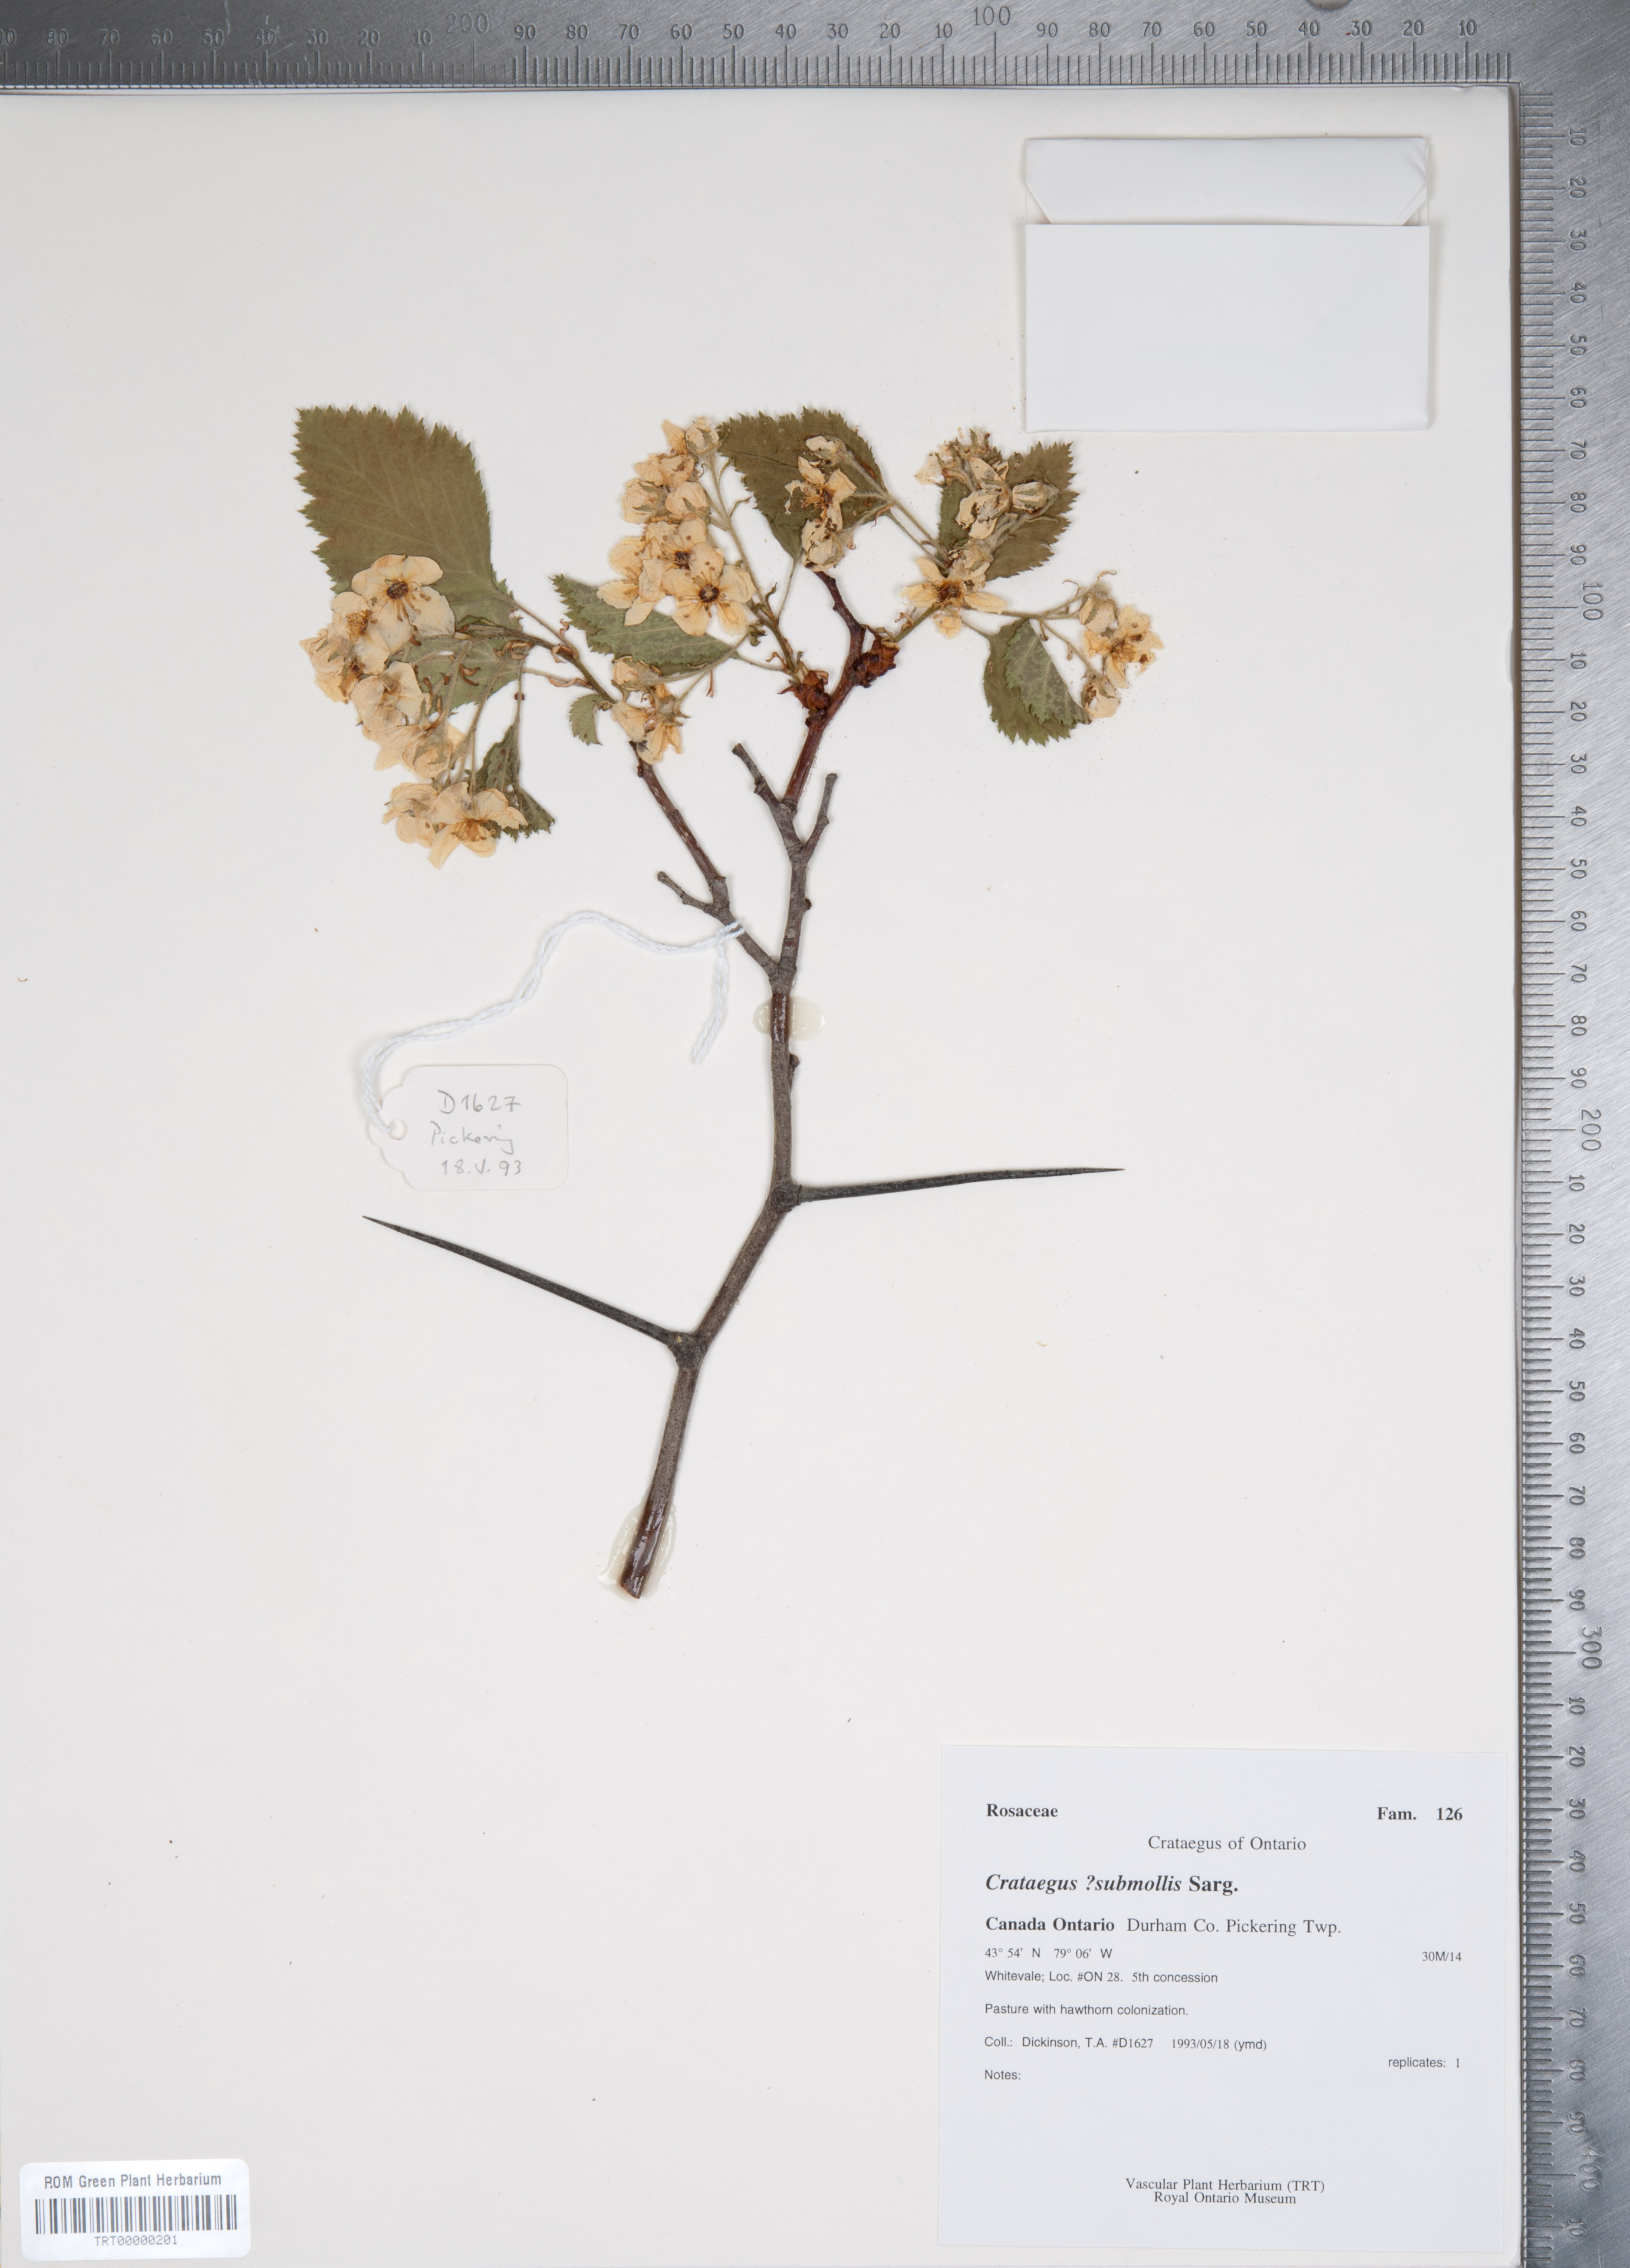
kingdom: Plantae
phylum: Tracheophyta
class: Magnoliopsida
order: Rosales
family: Rosaceae
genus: Crataegus
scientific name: Crataegus submollis
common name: Hairy cockspurthorn
